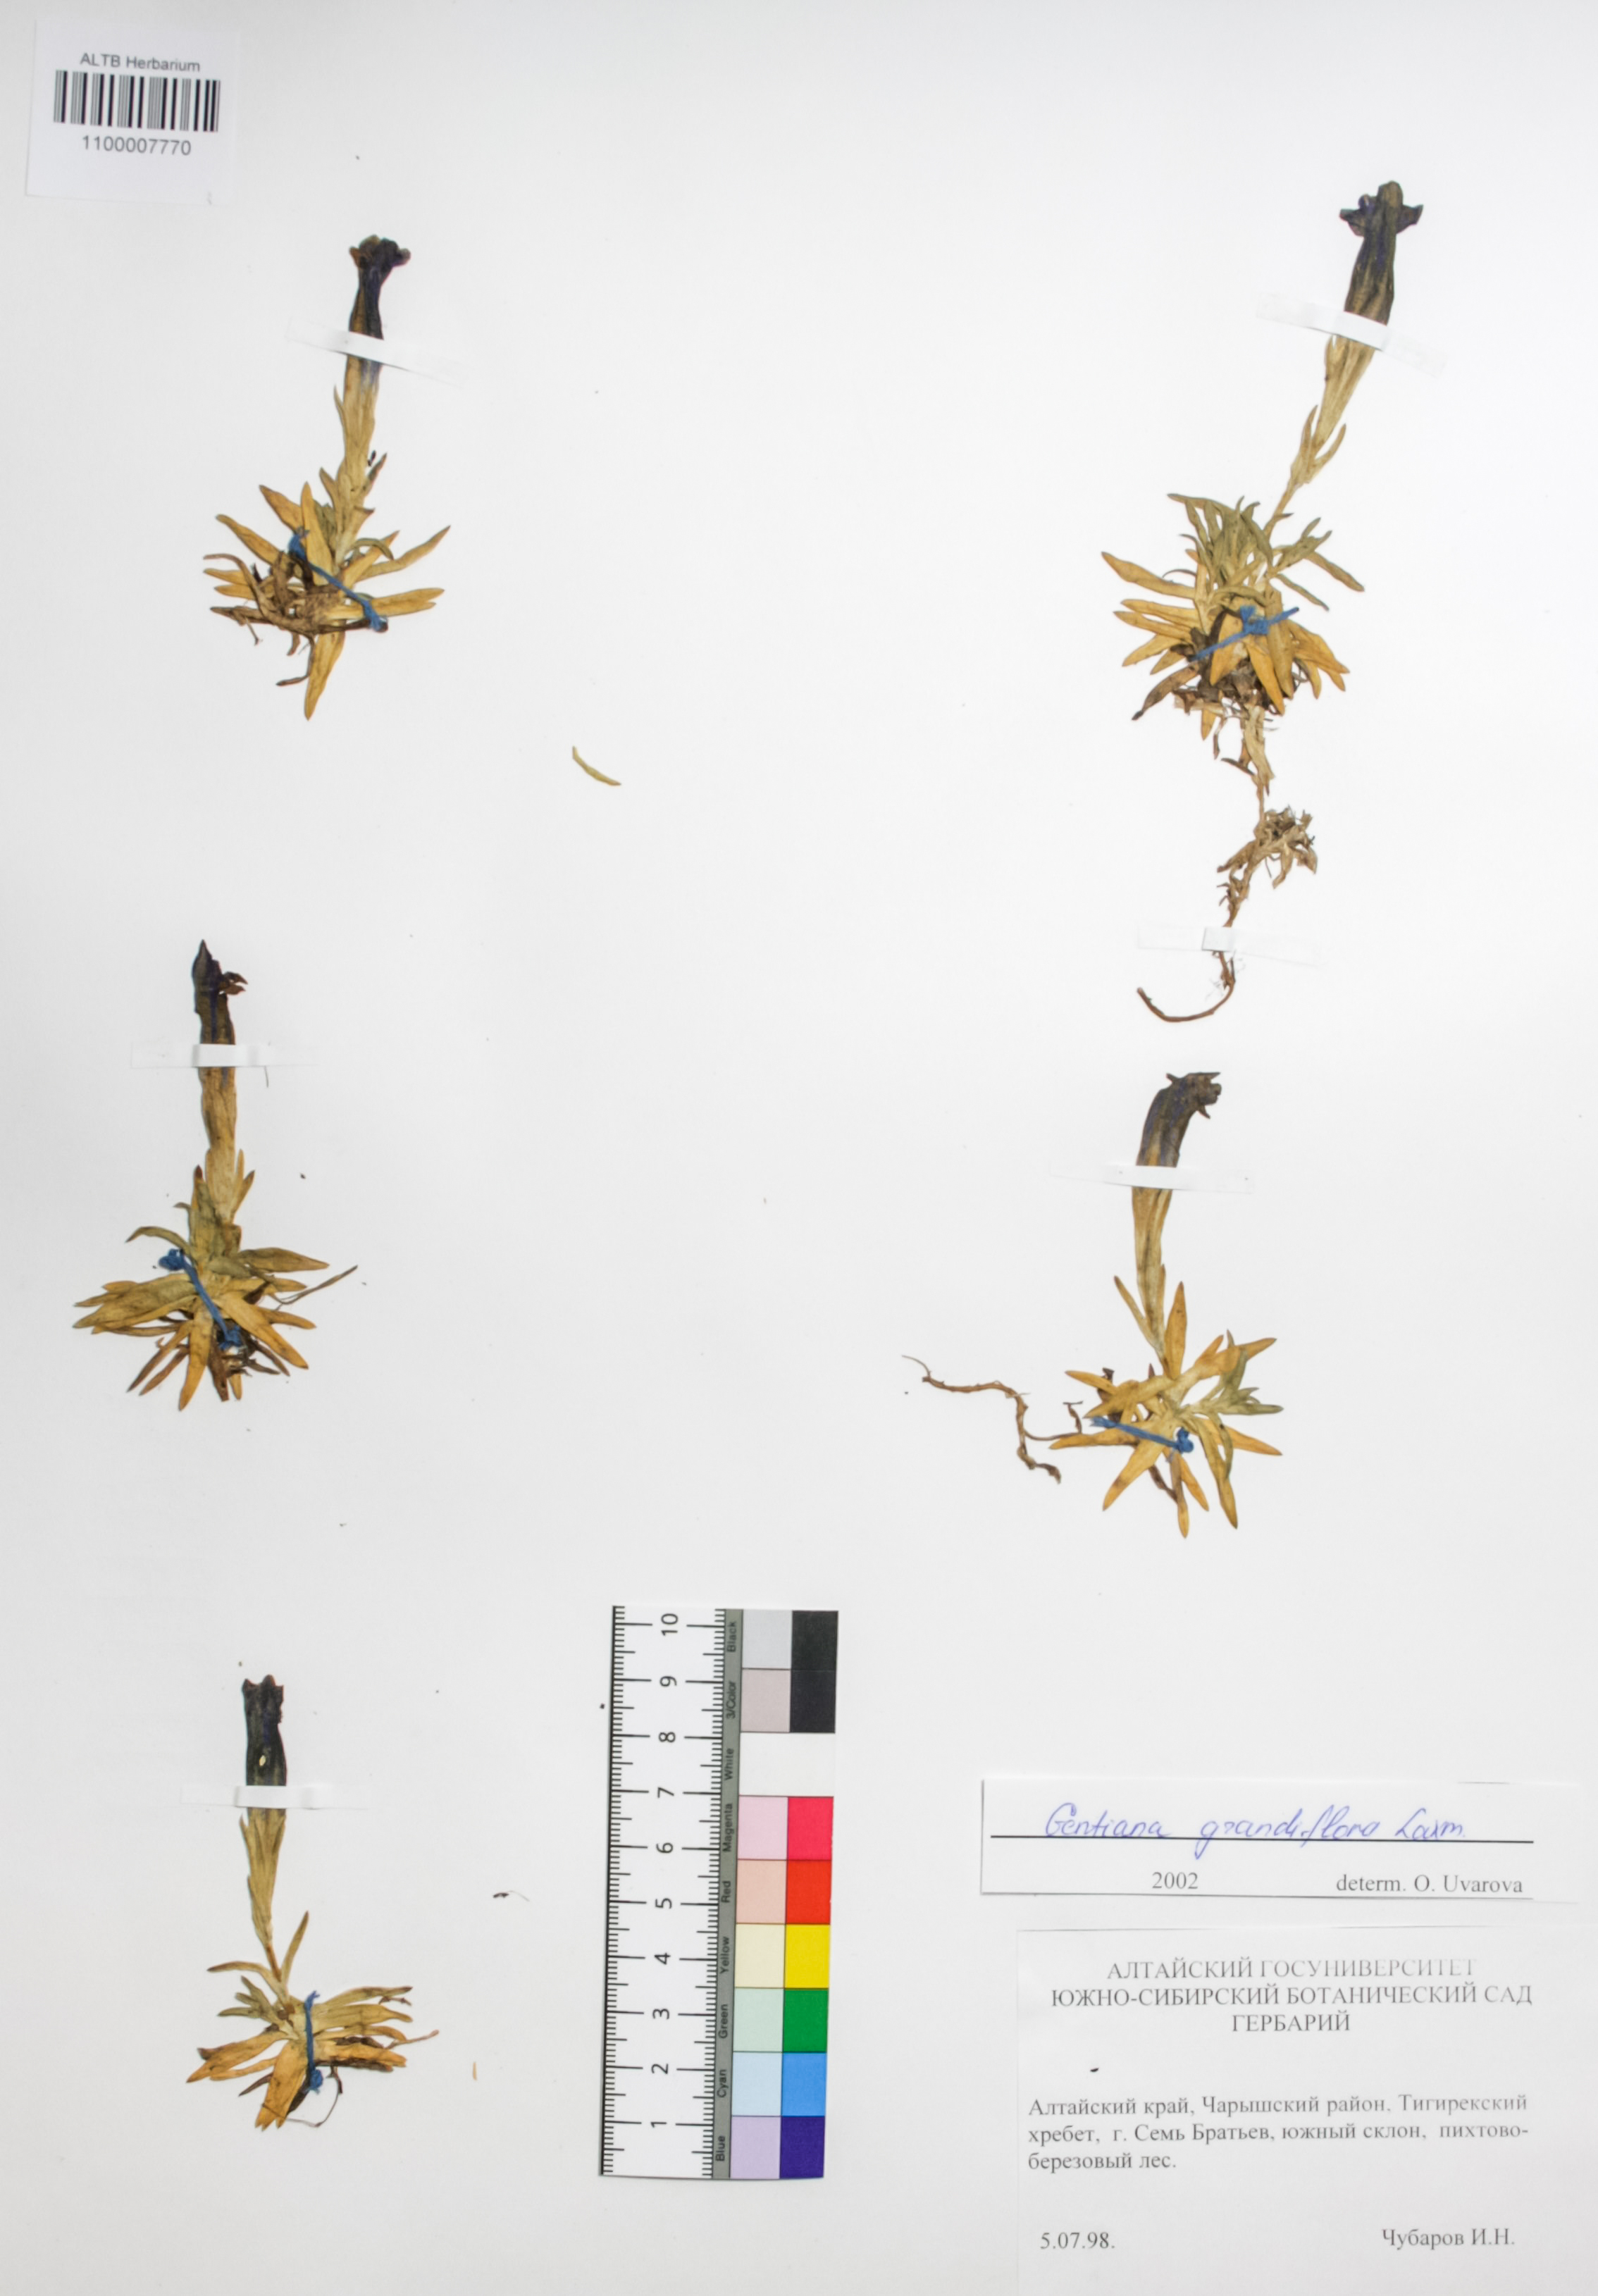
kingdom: Plantae
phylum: Tracheophyta
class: Magnoliopsida
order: Gentianales
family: Gentianaceae
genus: Gentiana
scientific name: Gentiana grandiflora
